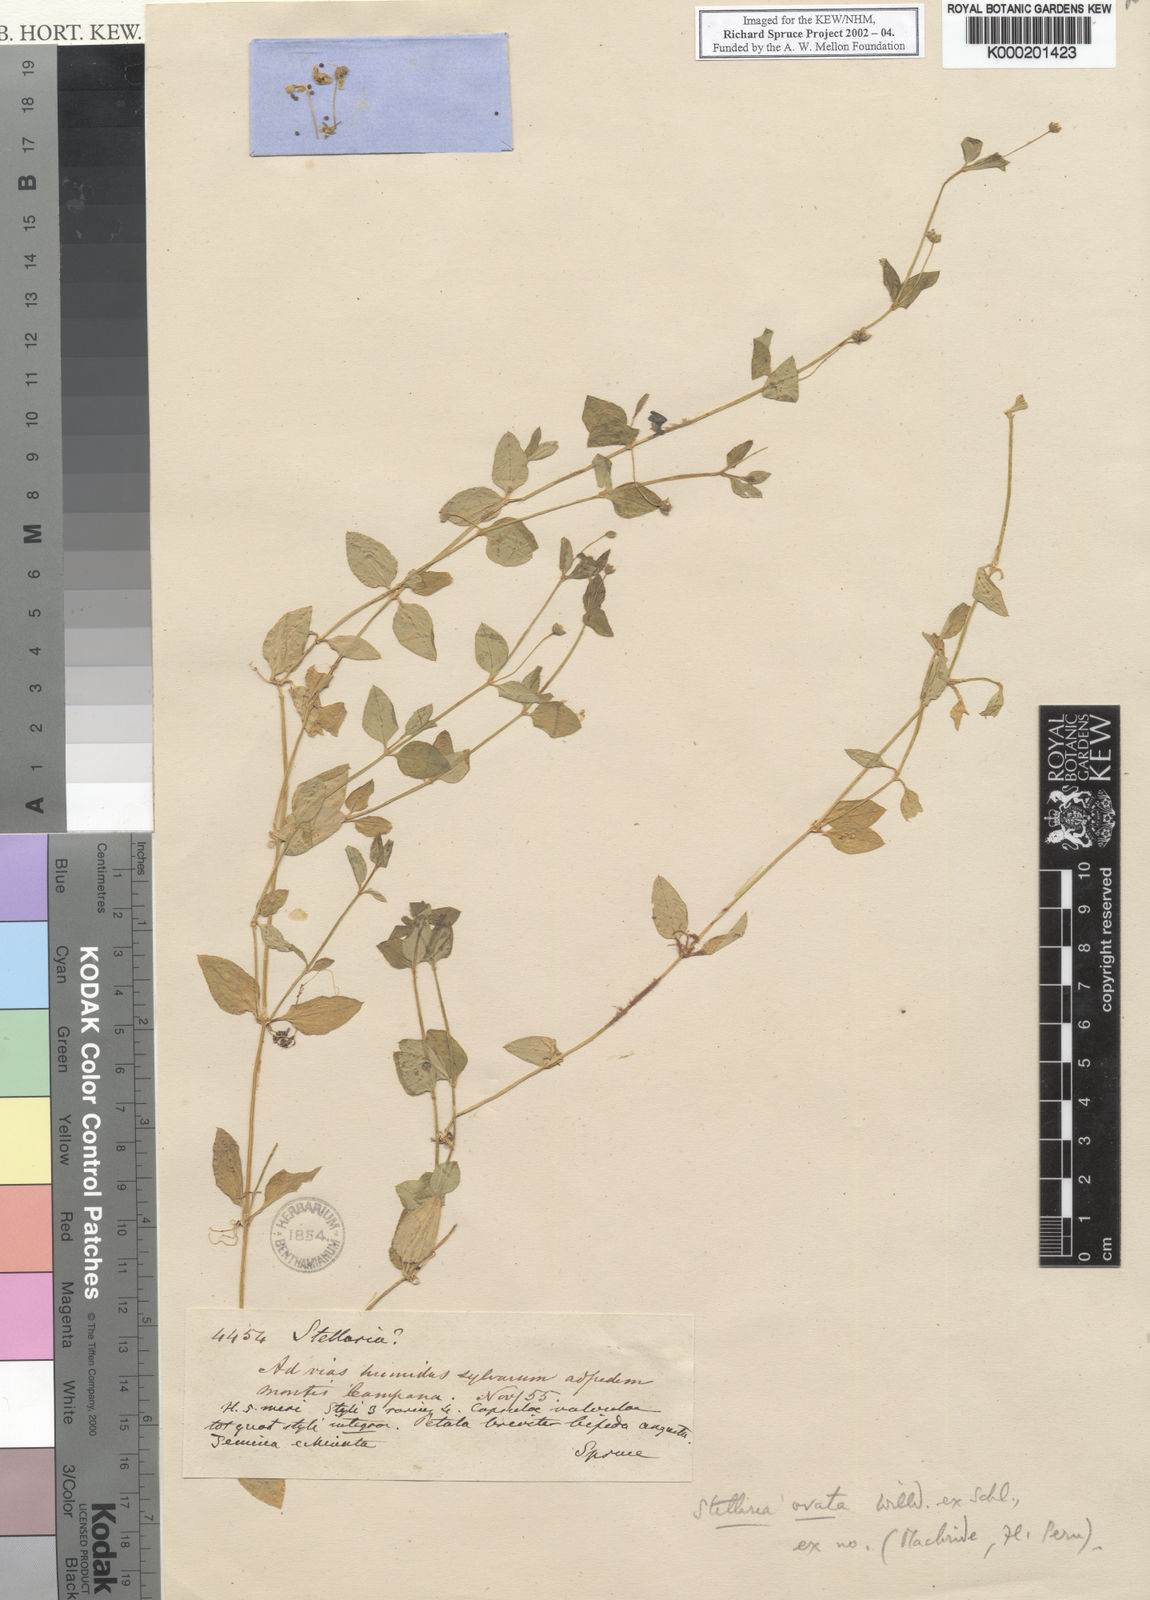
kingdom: Plantae
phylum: Tracheophyta
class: Magnoliopsida
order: Caryophyllales
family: Caryophyllaceae
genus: Stellaria
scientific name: Stellaria ovata
